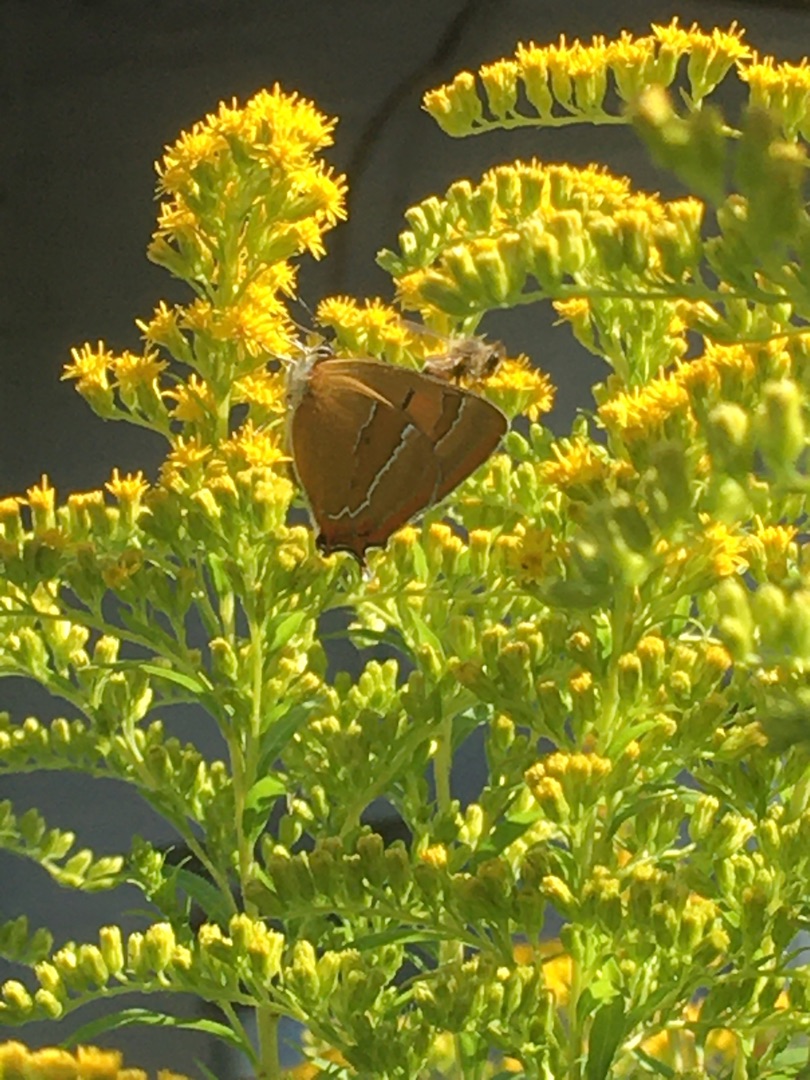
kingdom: Animalia
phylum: Arthropoda
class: Insecta
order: Lepidoptera
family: Lycaenidae
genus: Thecla
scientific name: Thecla betulae
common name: Guldhale
